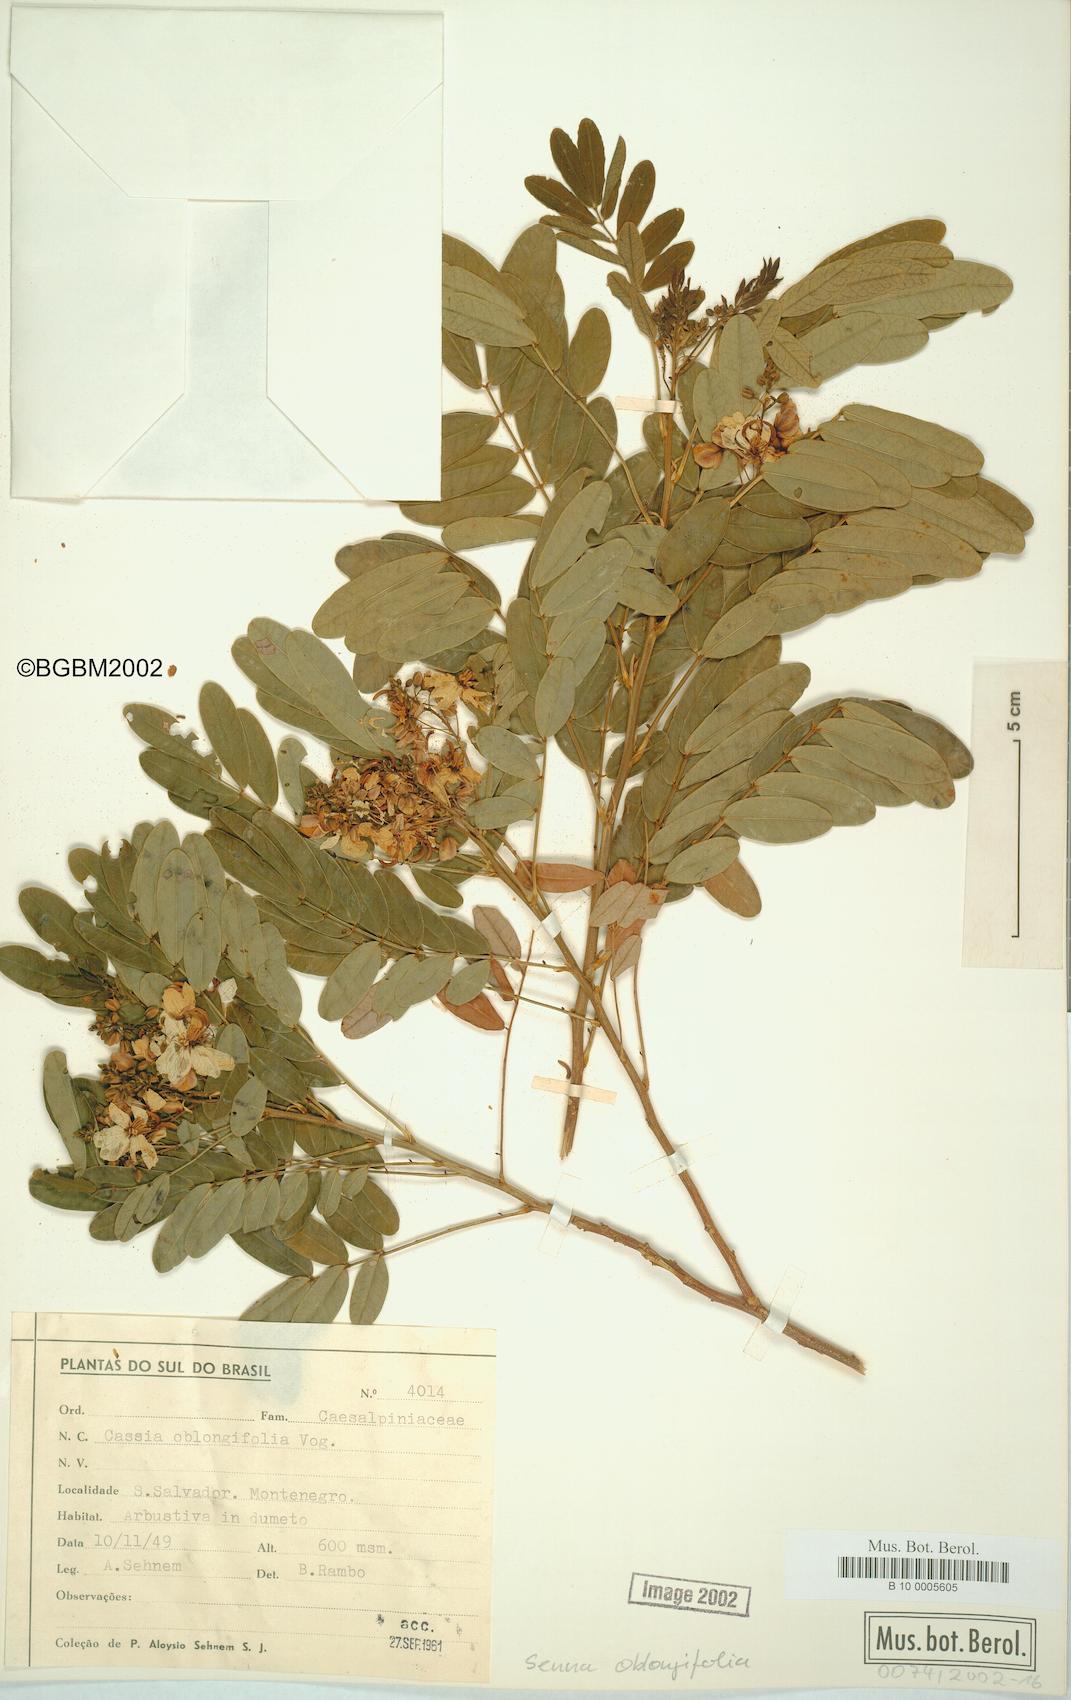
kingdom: Plantae
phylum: Tracheophyta
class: Magnoliopsida
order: Fabales
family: Fabaceae
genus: Senna
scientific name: Senna oblongifolia
